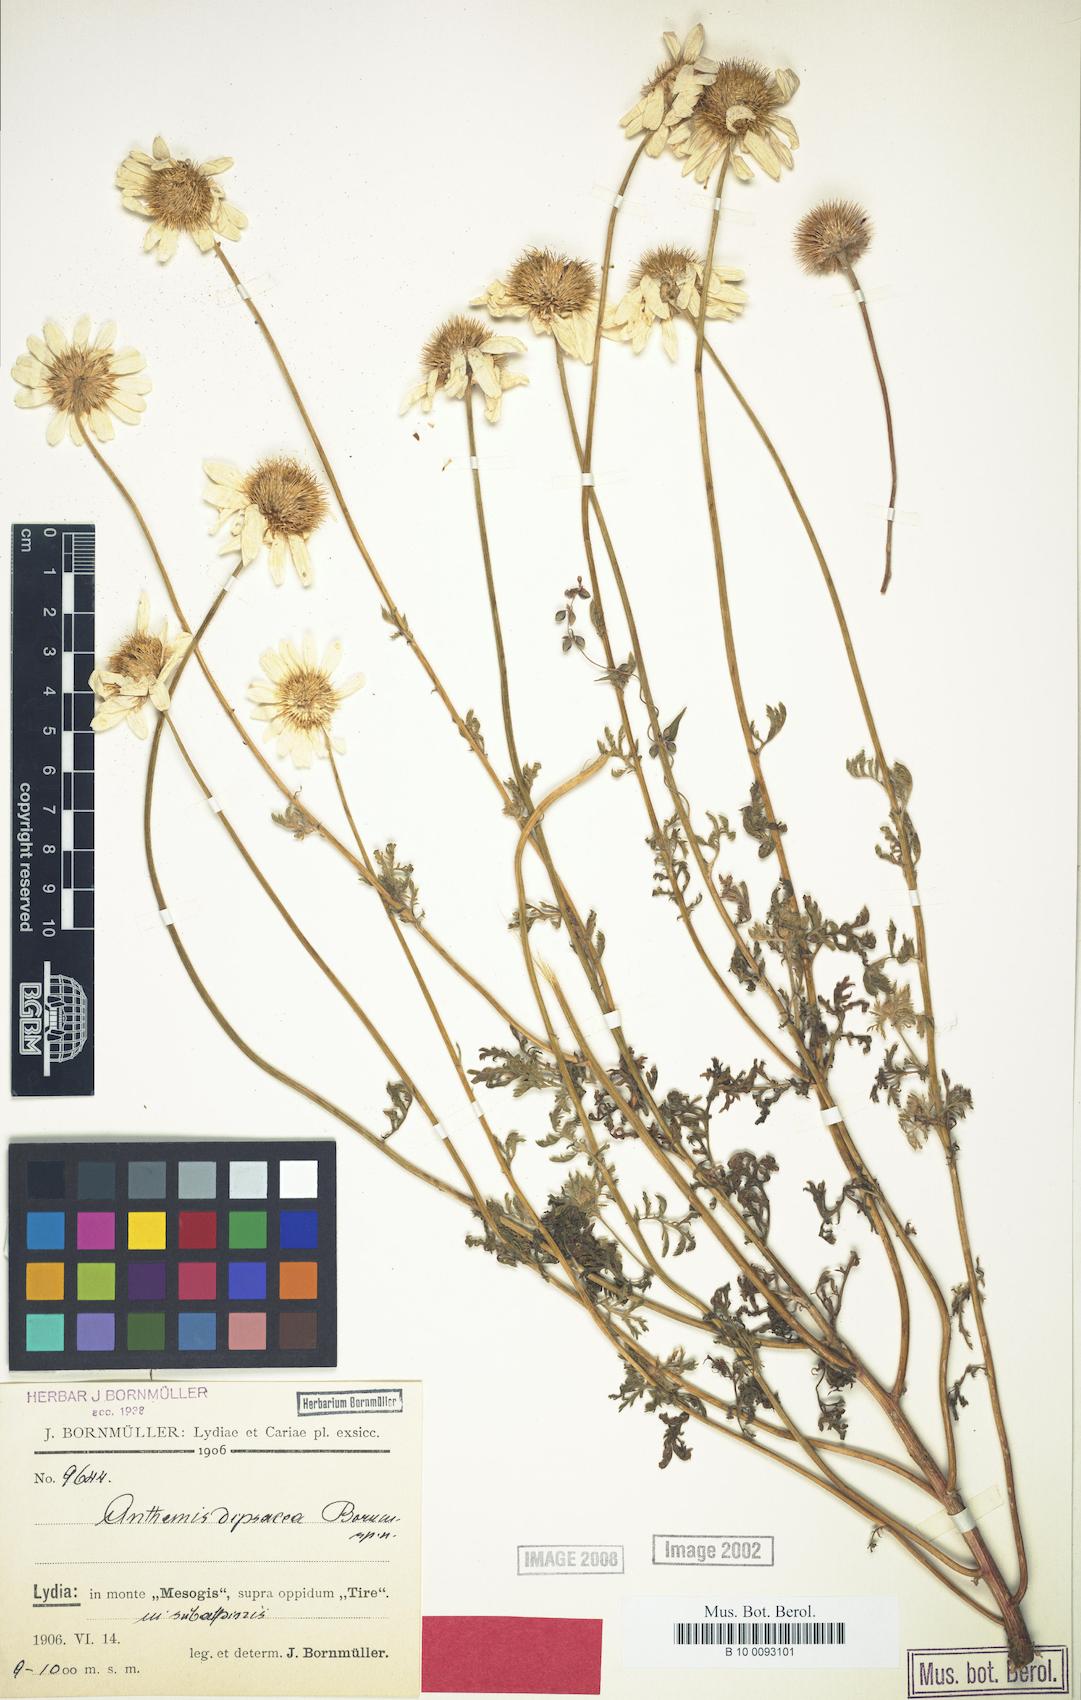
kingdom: Plantae
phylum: Tracheophyta
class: Magnoliopsida
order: Asterales
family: Asteraceae
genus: Cota
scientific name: Cota dipsacea
